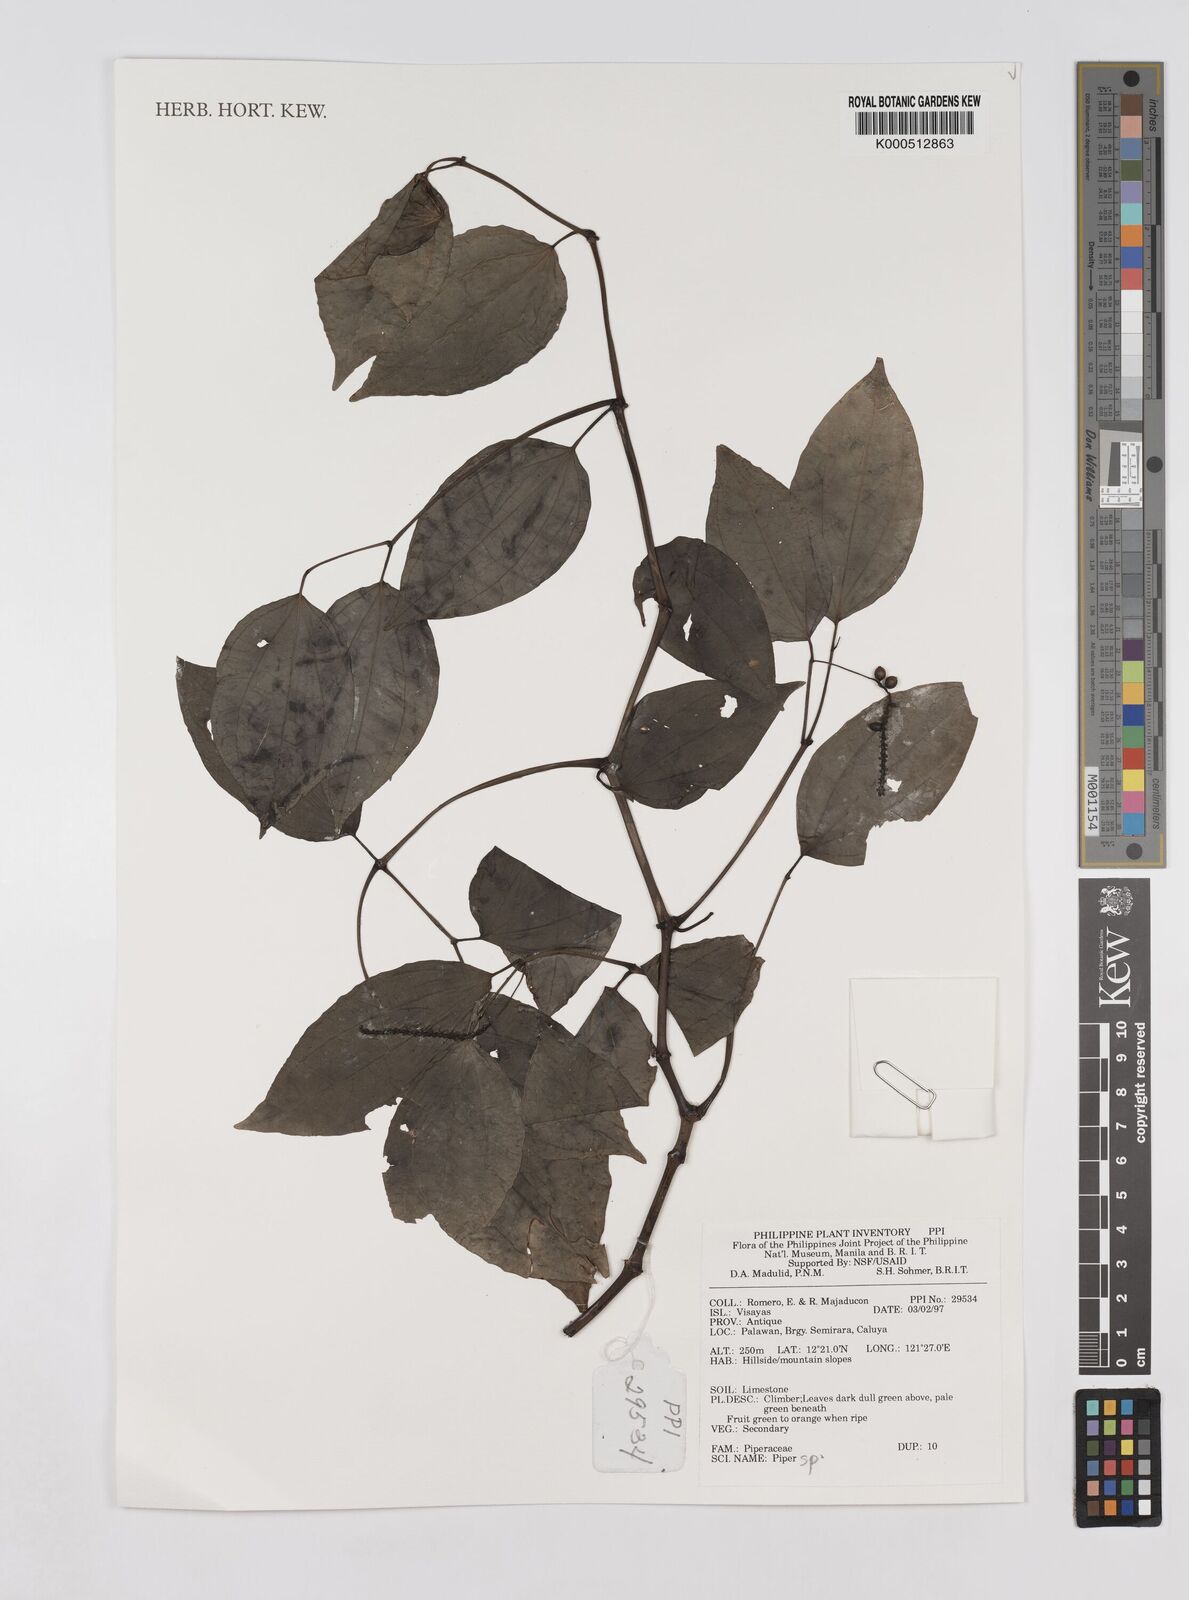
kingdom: Plantae
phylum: Tracheophyta
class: Magnoliopsida
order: Piperales
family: Piperaceae
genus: Piper
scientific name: Piper
